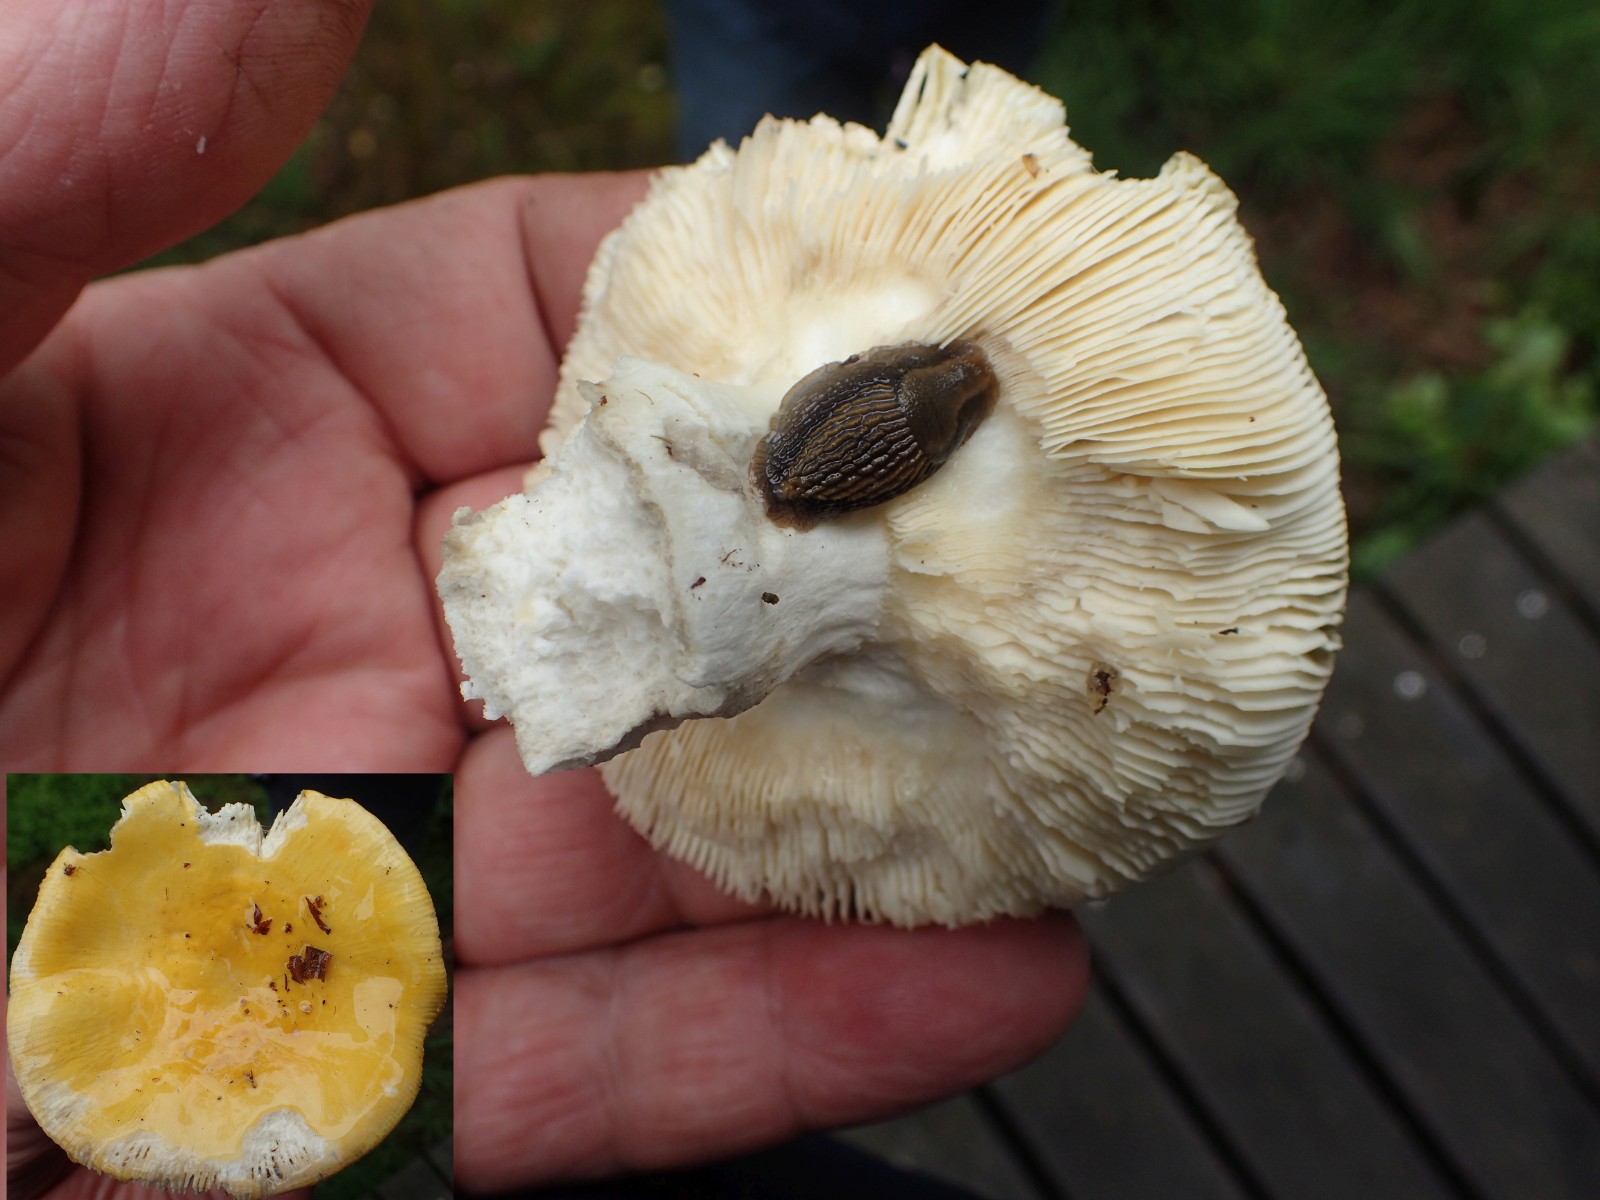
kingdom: Fungi
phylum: Basidiomycota
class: Agaricomycetes
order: Russulales
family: Russulaceae
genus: Russula
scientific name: Russula claroflava
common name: birke-skørhat
